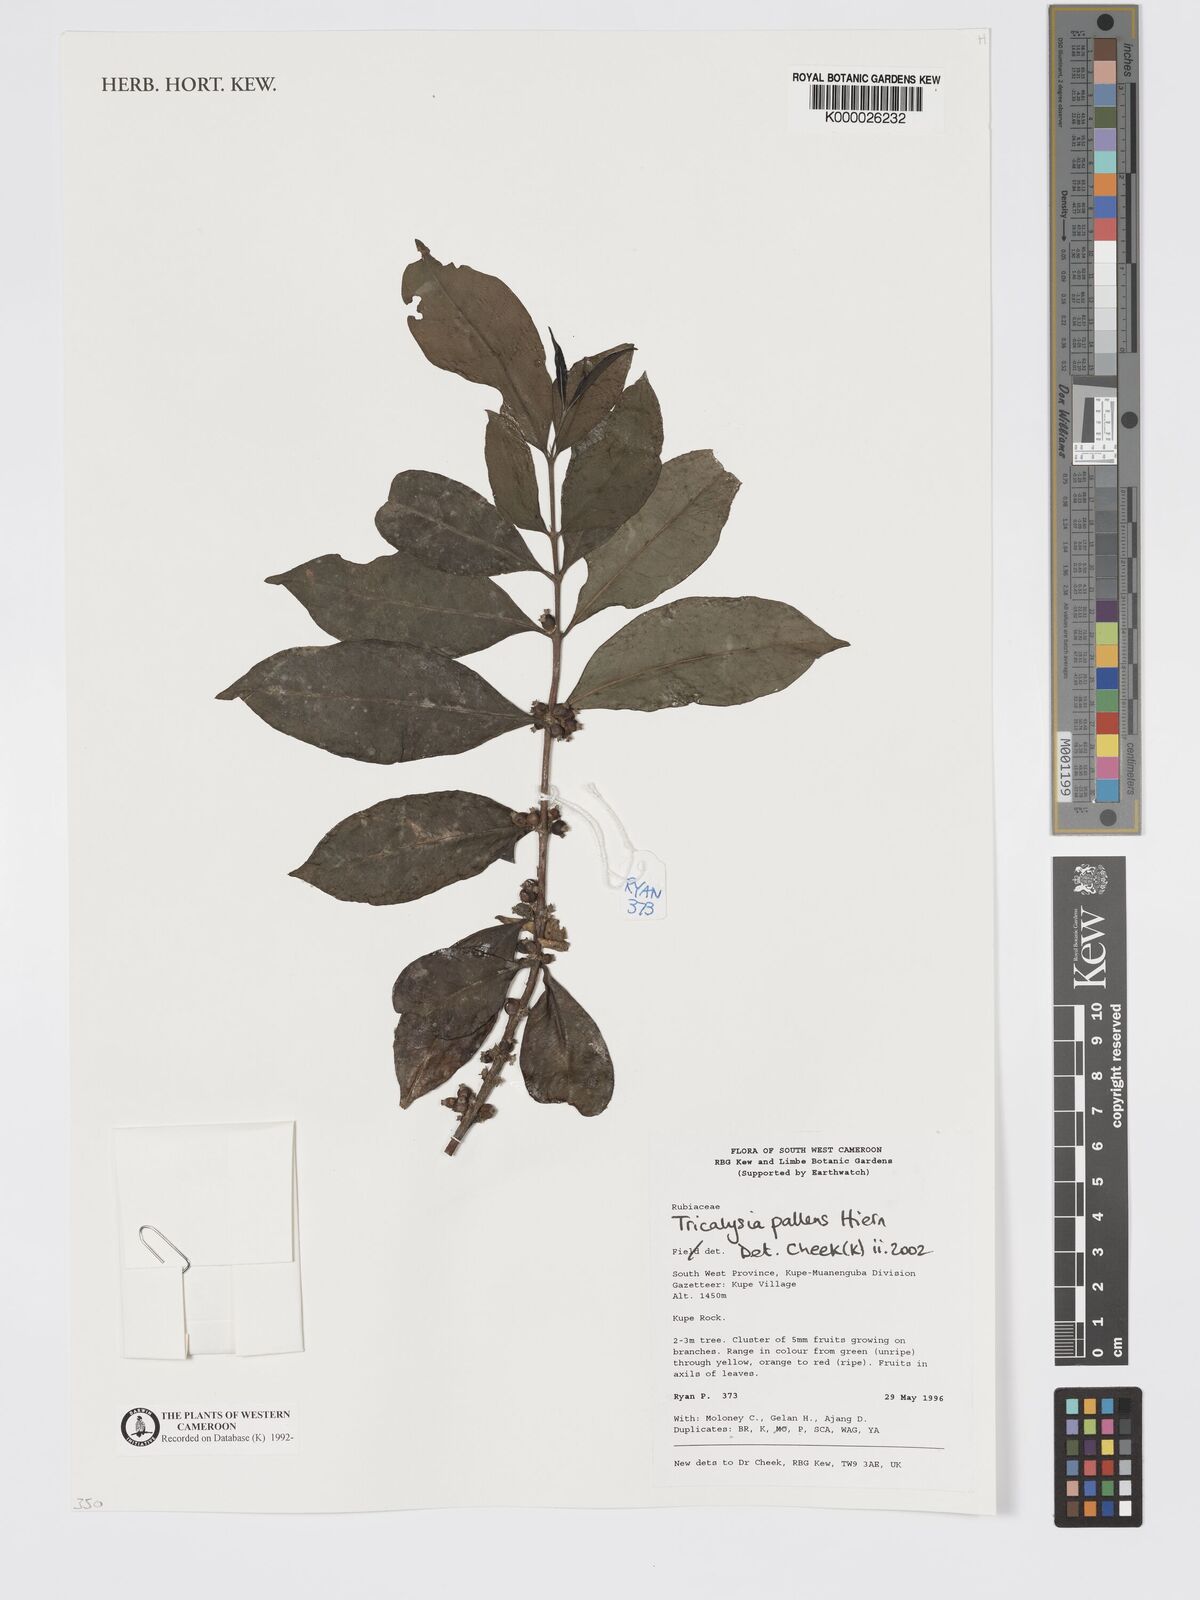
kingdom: Plantae
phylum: Tracheophyta
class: Magnoliopsida
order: Gentianales
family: Rubiaceae
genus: Tricalysia
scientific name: Tricalysia pallens
